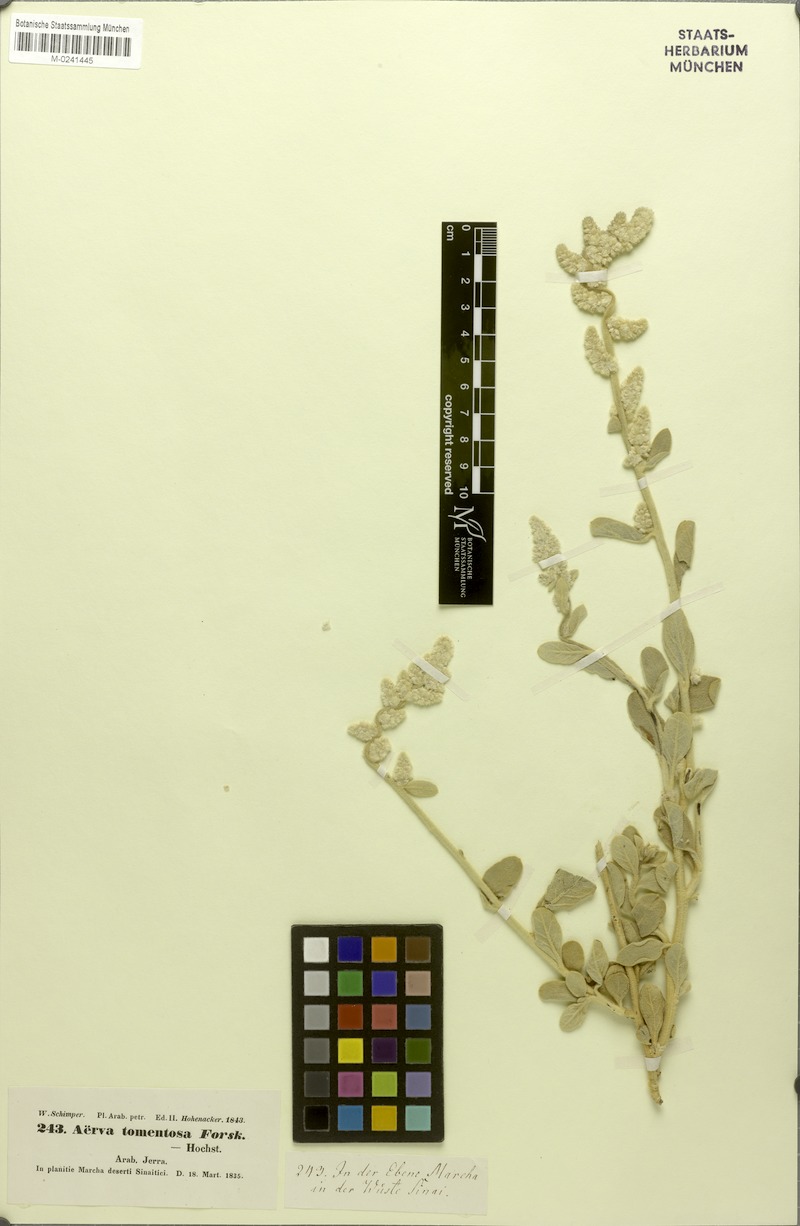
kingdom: Plantae
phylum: Tracheophyta
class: Magnoliopsida
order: Caryophyllales
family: Amaranthaceae
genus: Aerva
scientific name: Aerva javanica
